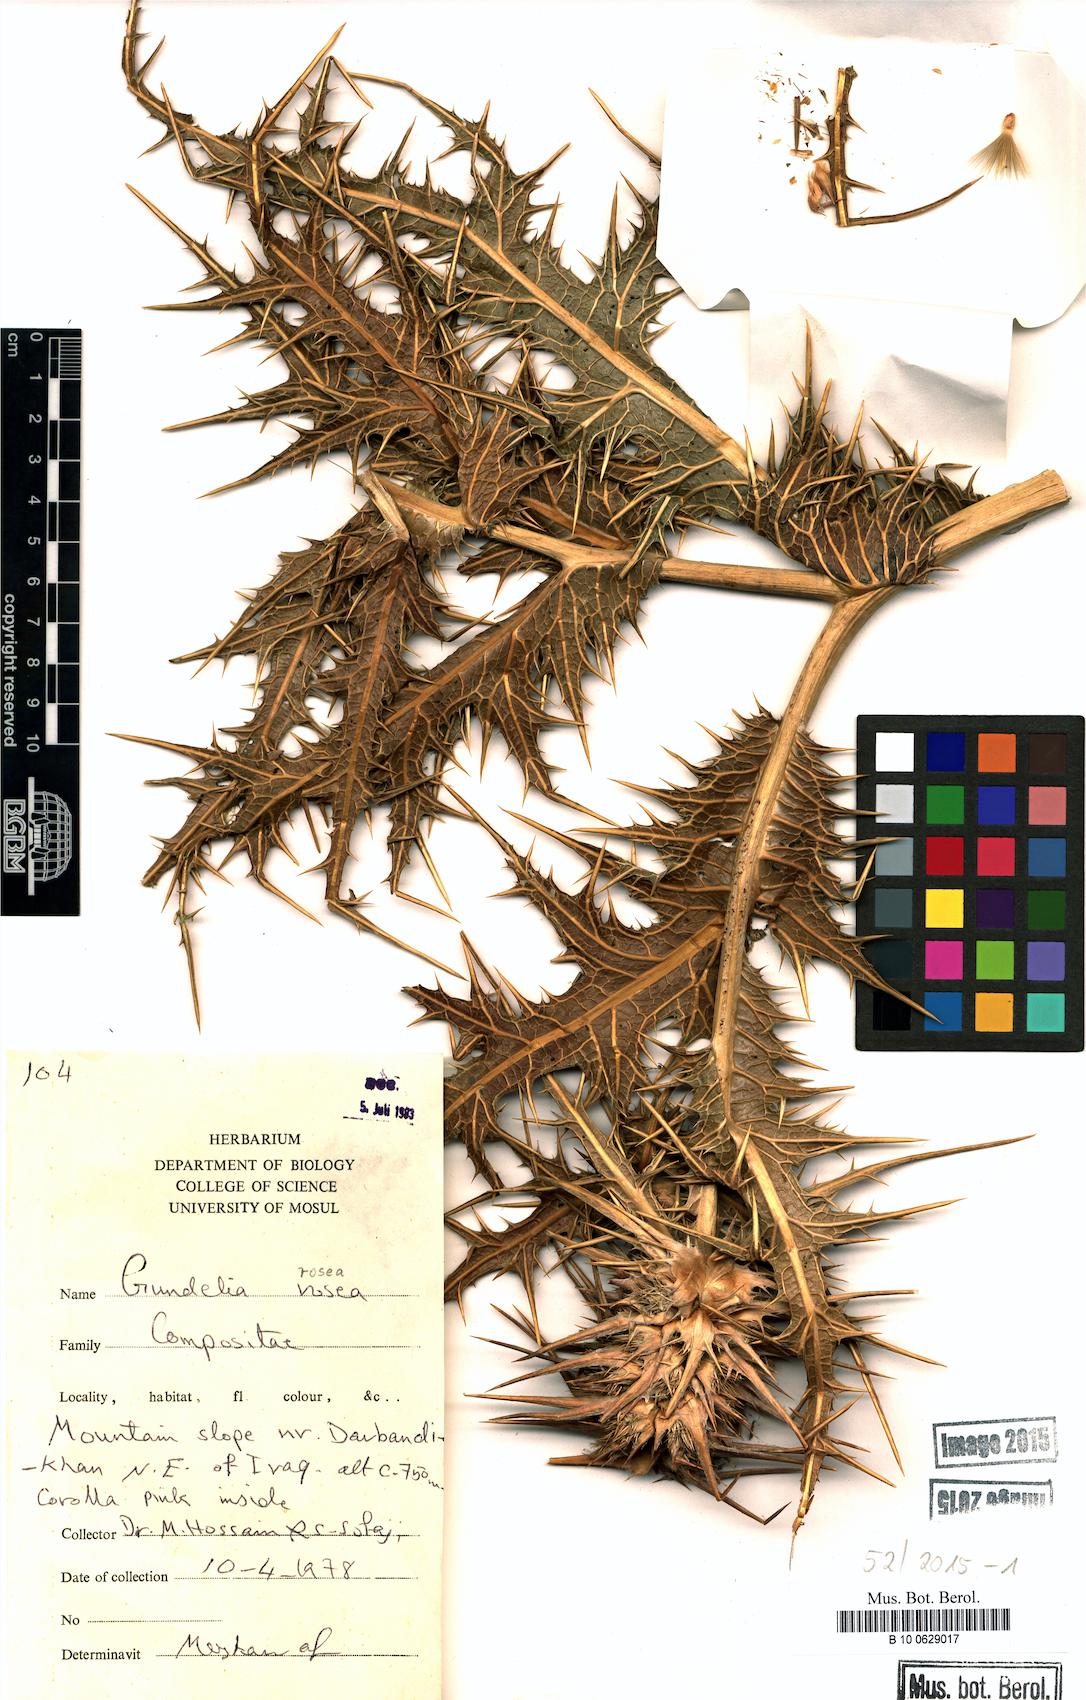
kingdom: Plantae
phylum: Tracheophyta
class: Magnoliopsida
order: Asterales
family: Asteraceae
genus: Gundelia
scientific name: Gundelia rosea
